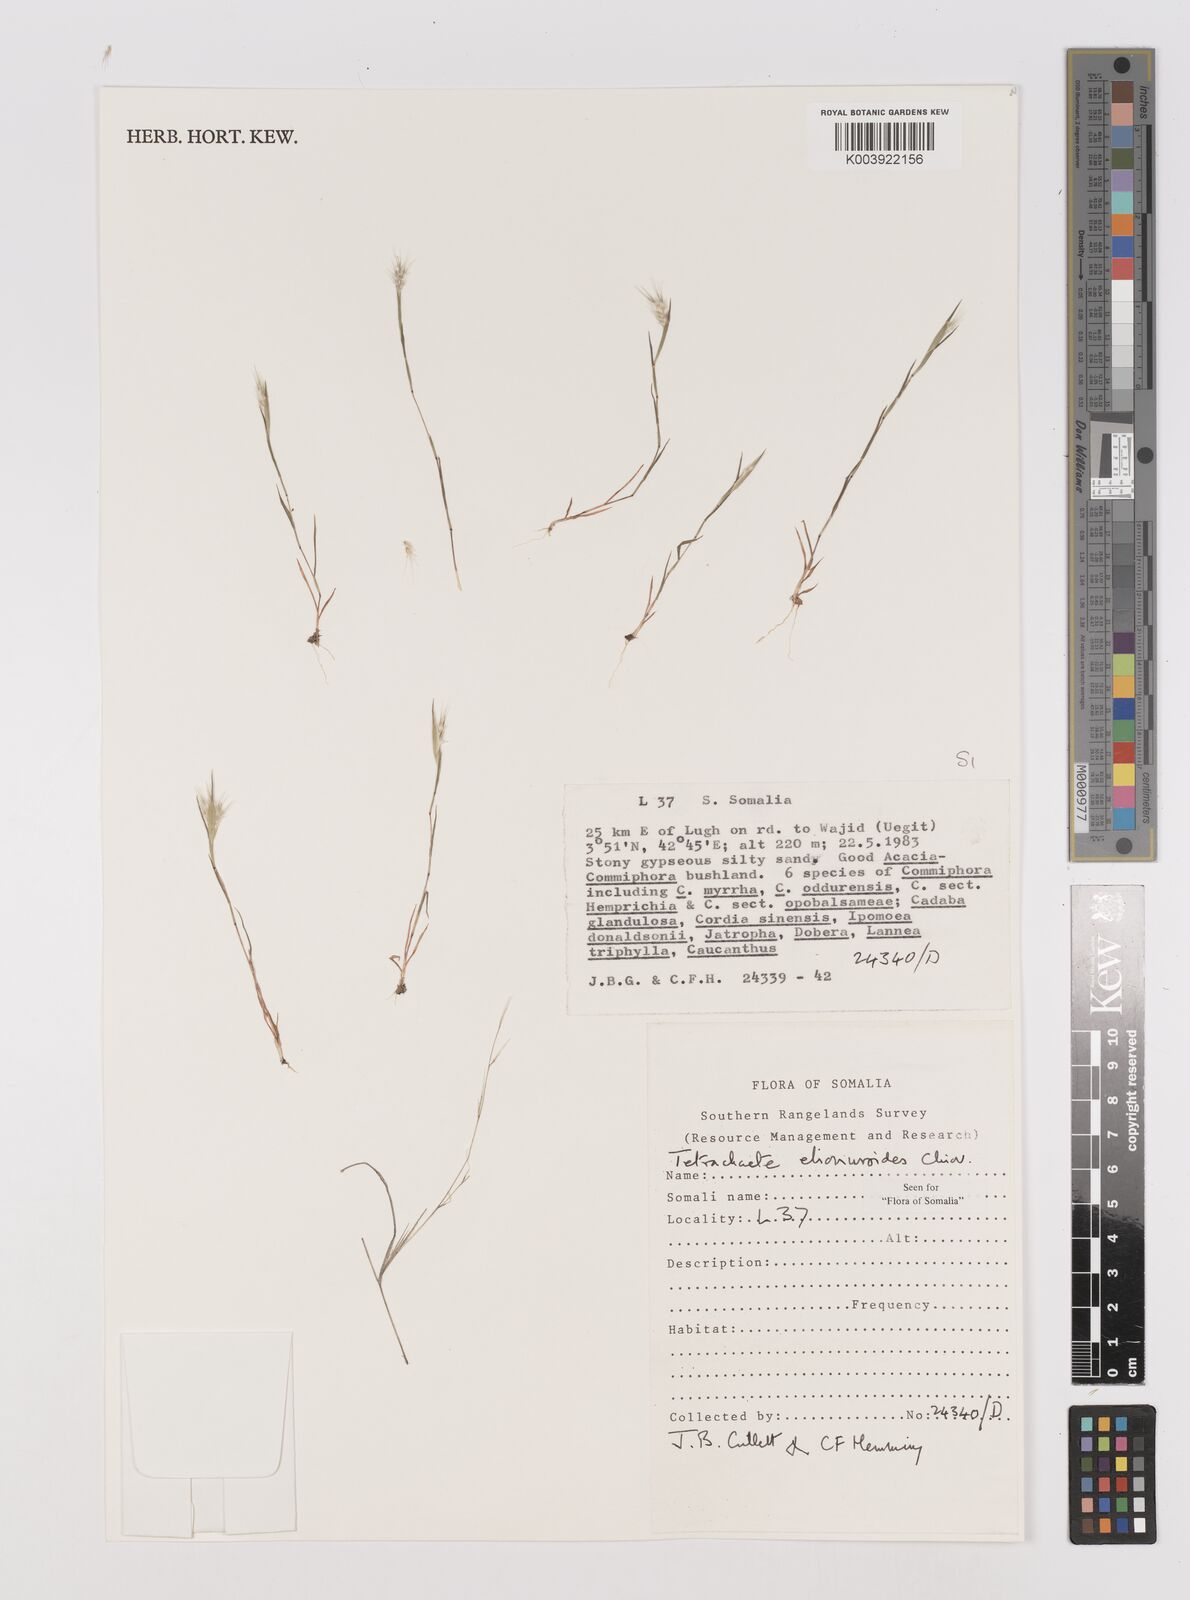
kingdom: Plantae
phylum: Tracheophyta
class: Liliopsida
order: Poales
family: Poaceae
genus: Tetrachaete
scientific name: Tetrachaete elionuroides
